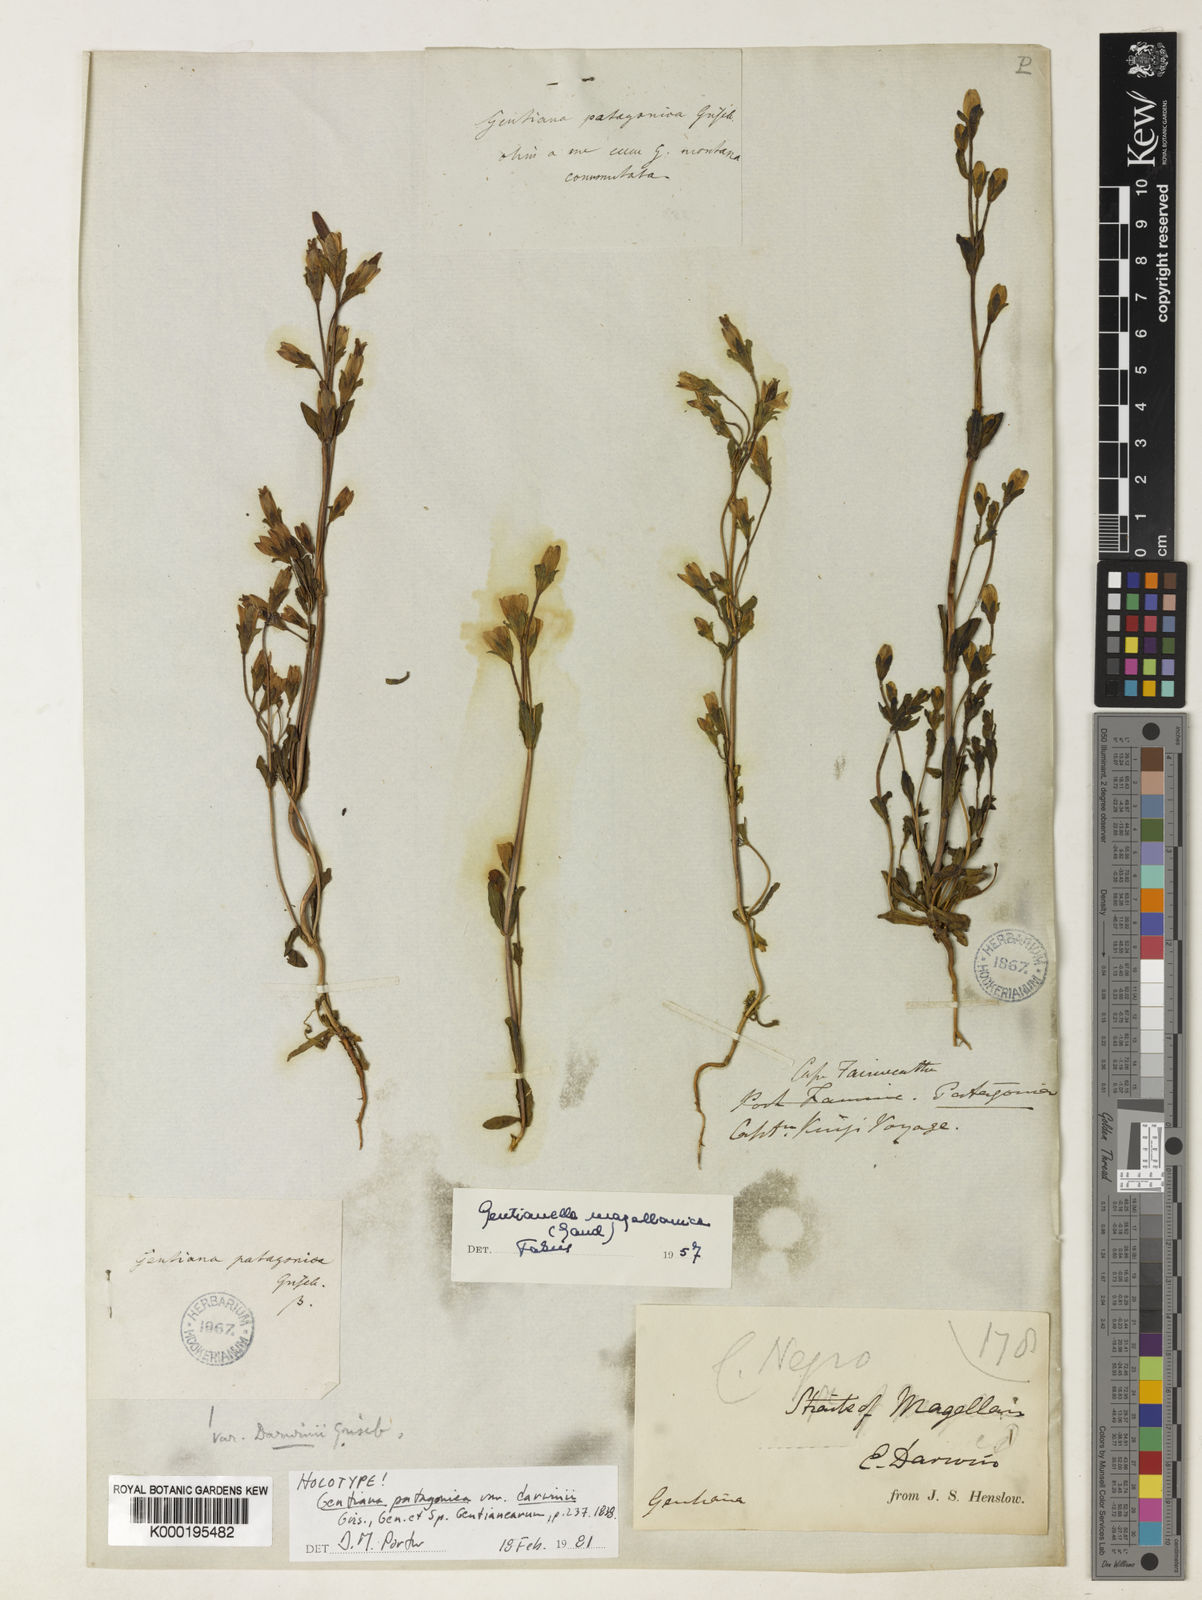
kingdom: Plantae
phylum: Tracheophyta
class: Magnoliopsida
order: Gentianales
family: Gentianaceae
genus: Gentianella
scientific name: Gentianella magellanica
